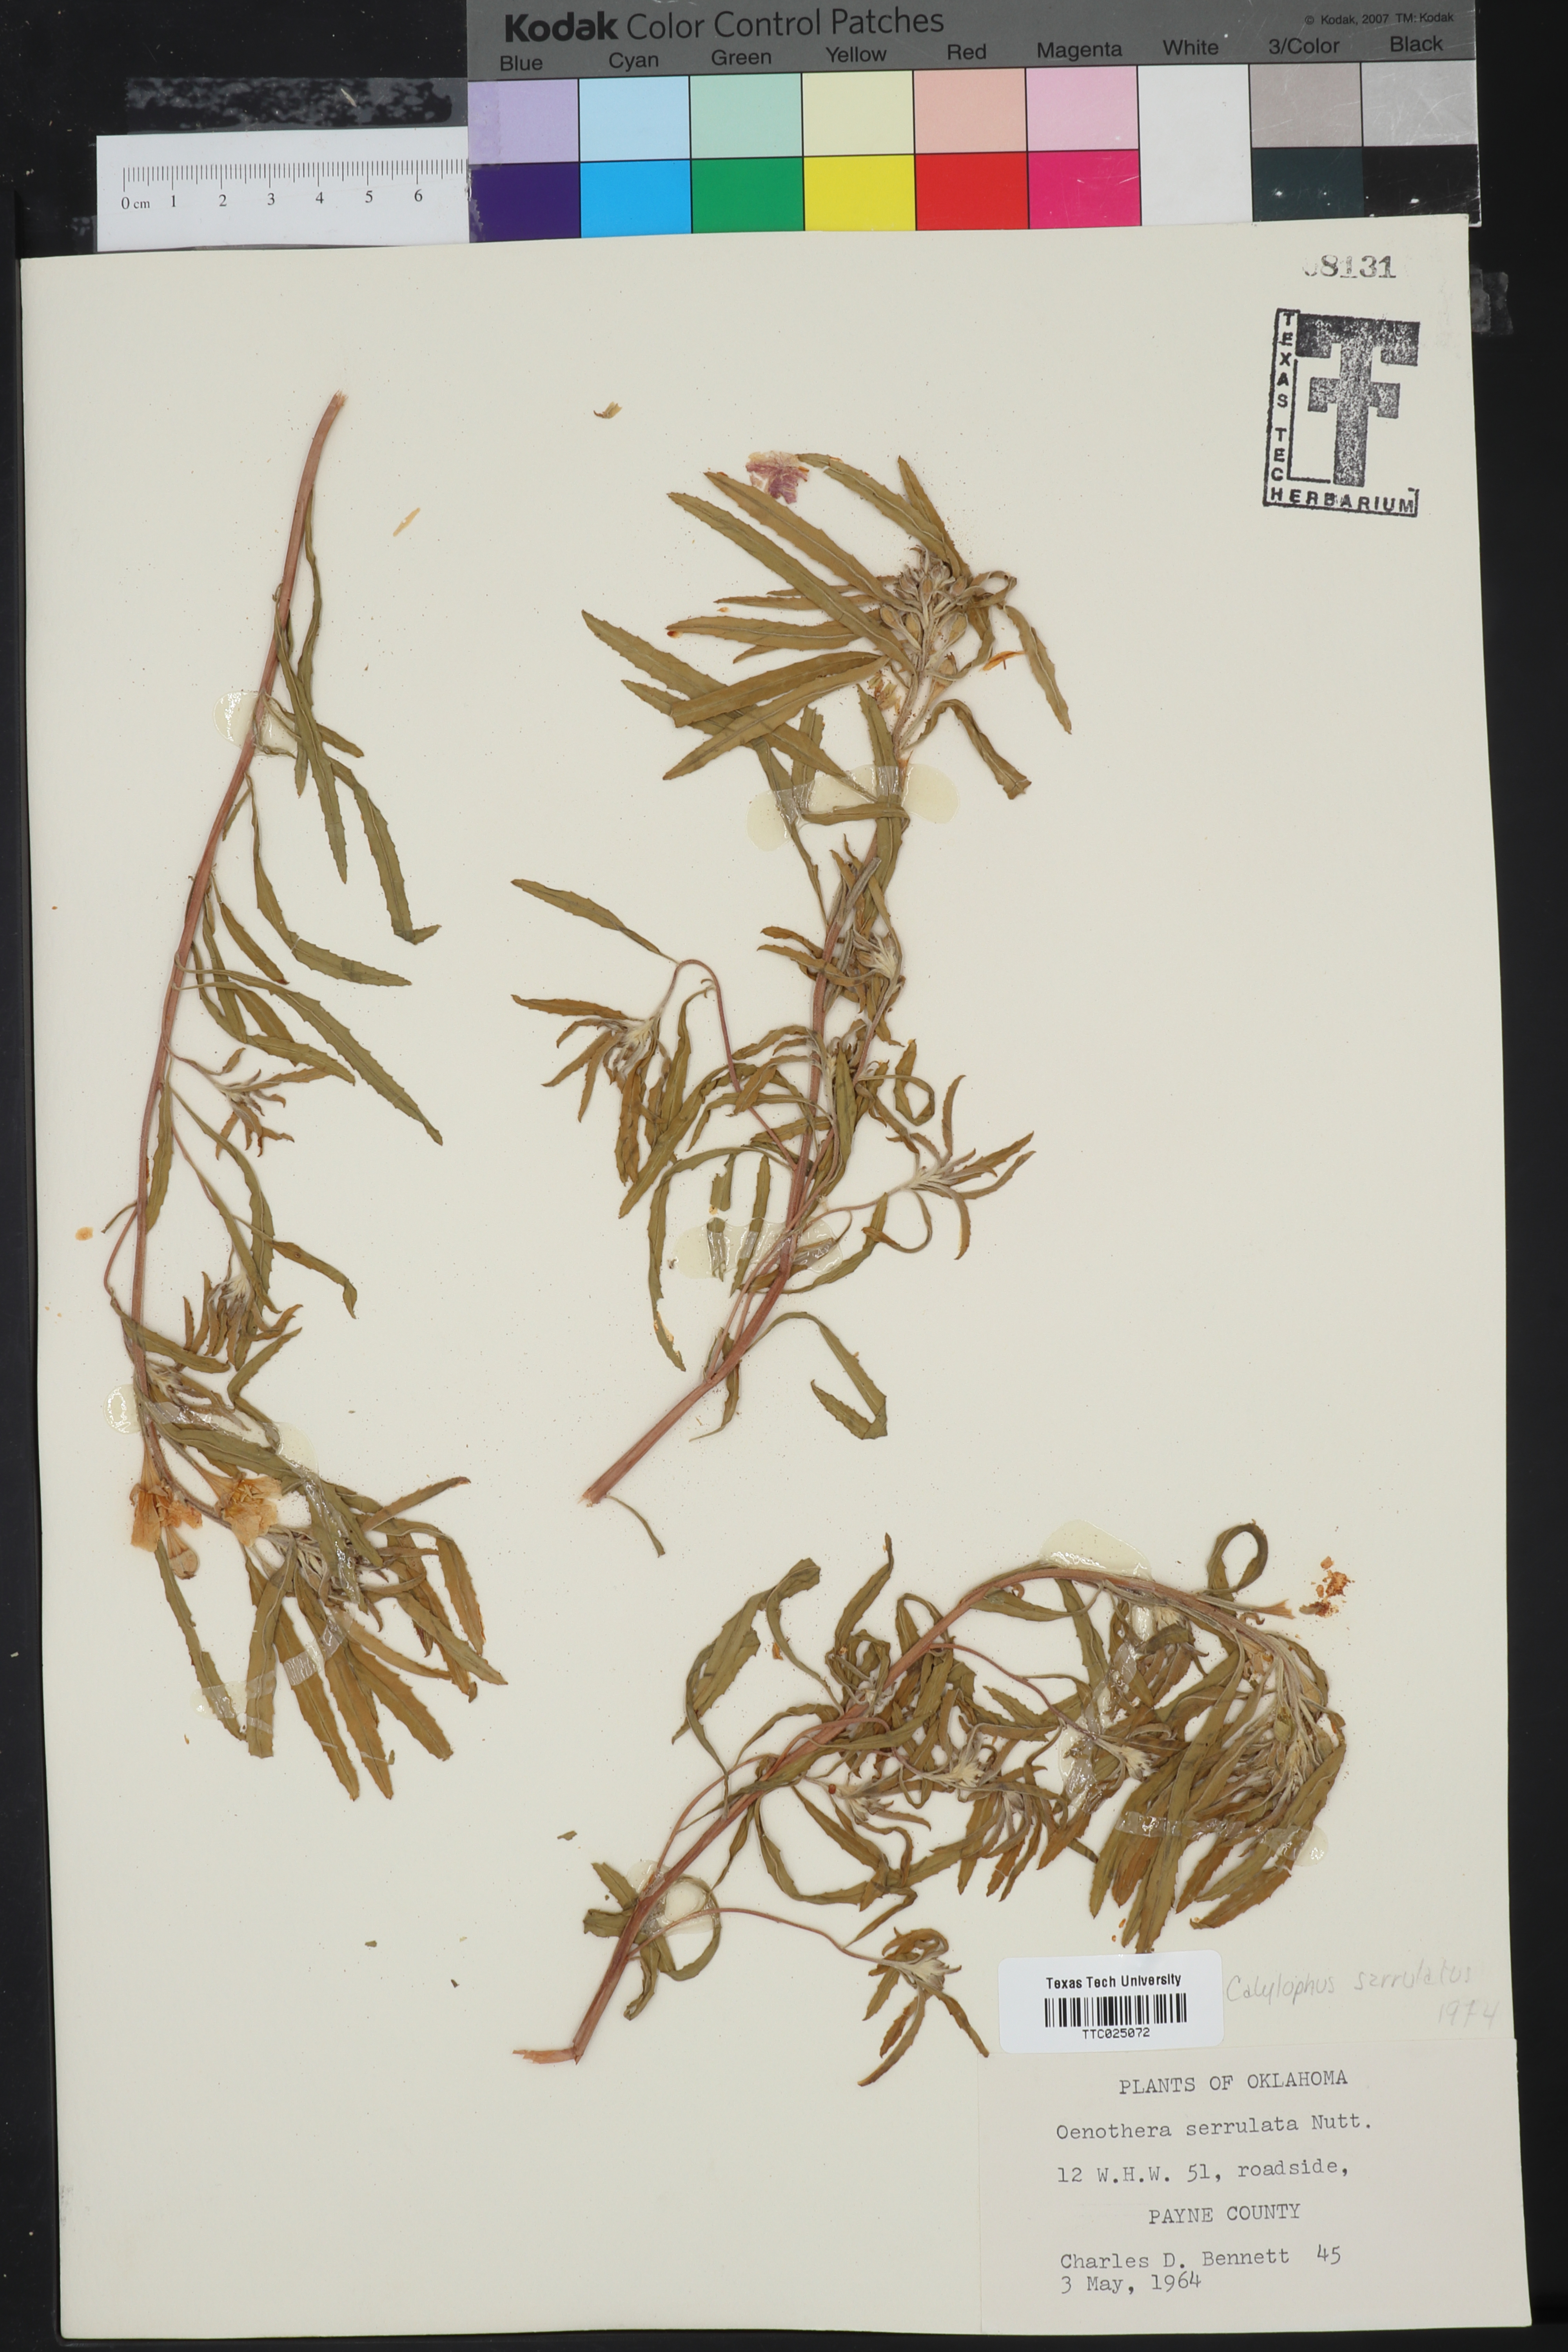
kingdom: Plantae
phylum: Tracheophyta
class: Magnoliopsida
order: Myrtales
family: Onagraceae
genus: Oenothera
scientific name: Oenothera serrulata
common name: Half-shrub calylophus
